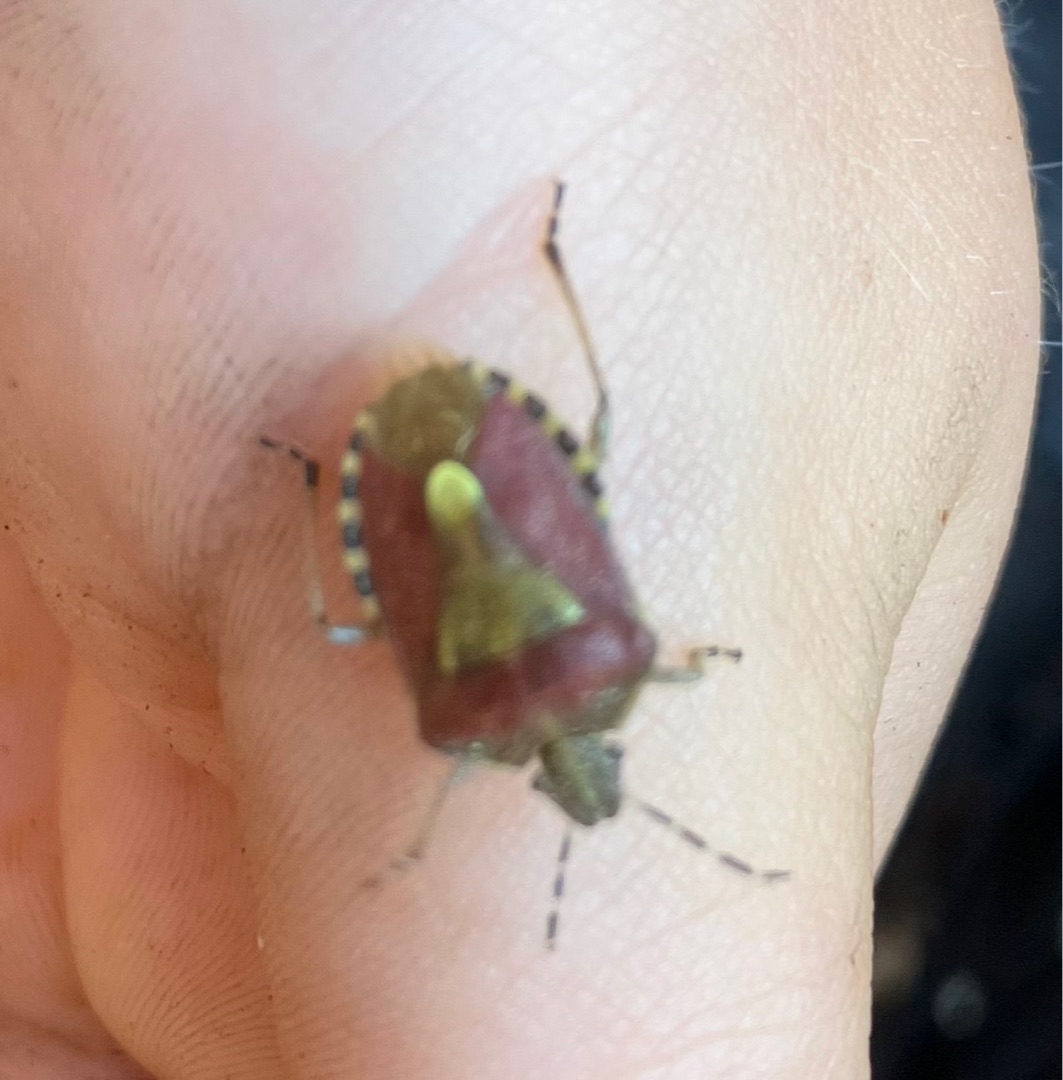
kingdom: Animalia
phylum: Arthropoda
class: Insecta
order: Hemiptera
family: Pentatomidae
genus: Dolycoris
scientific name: Dolycoris baccarum
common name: Almindelig bærtæge
